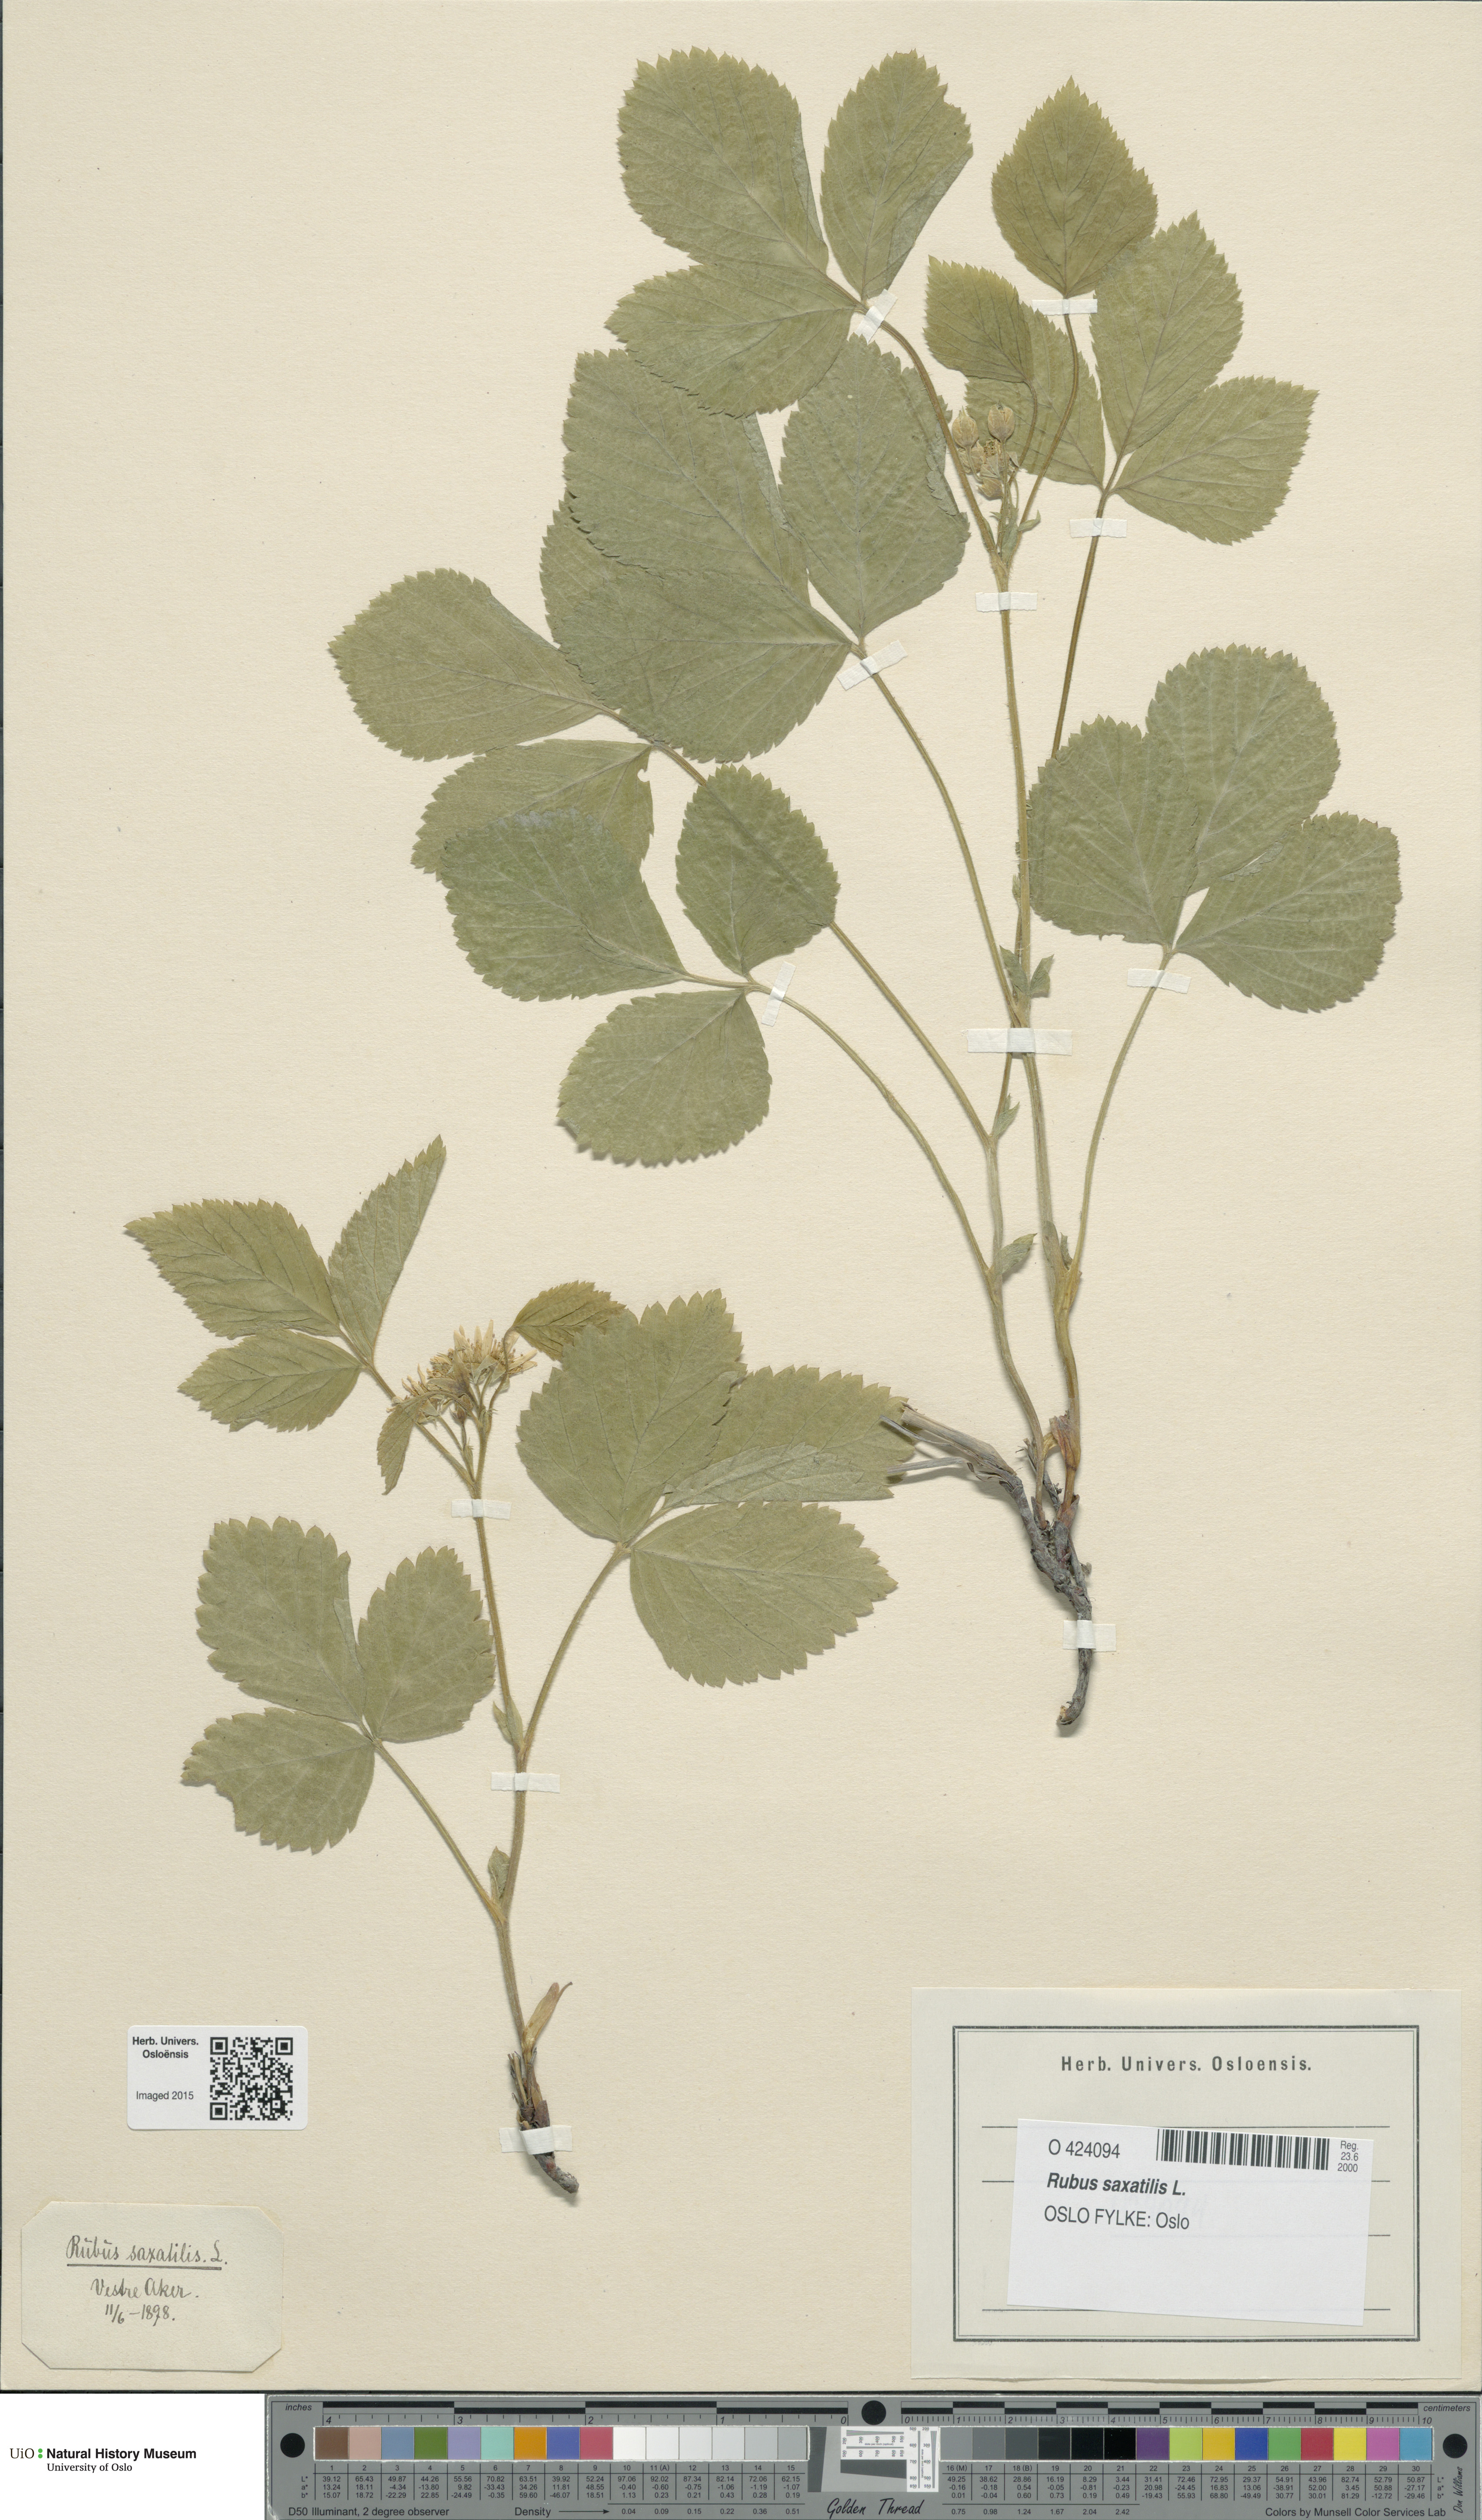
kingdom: Plantae
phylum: Tracheophyta
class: Magnoliopsida
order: Rosales
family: Rosaceae
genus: Rubus
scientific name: Rubus saxatilis
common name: Stone bramble
